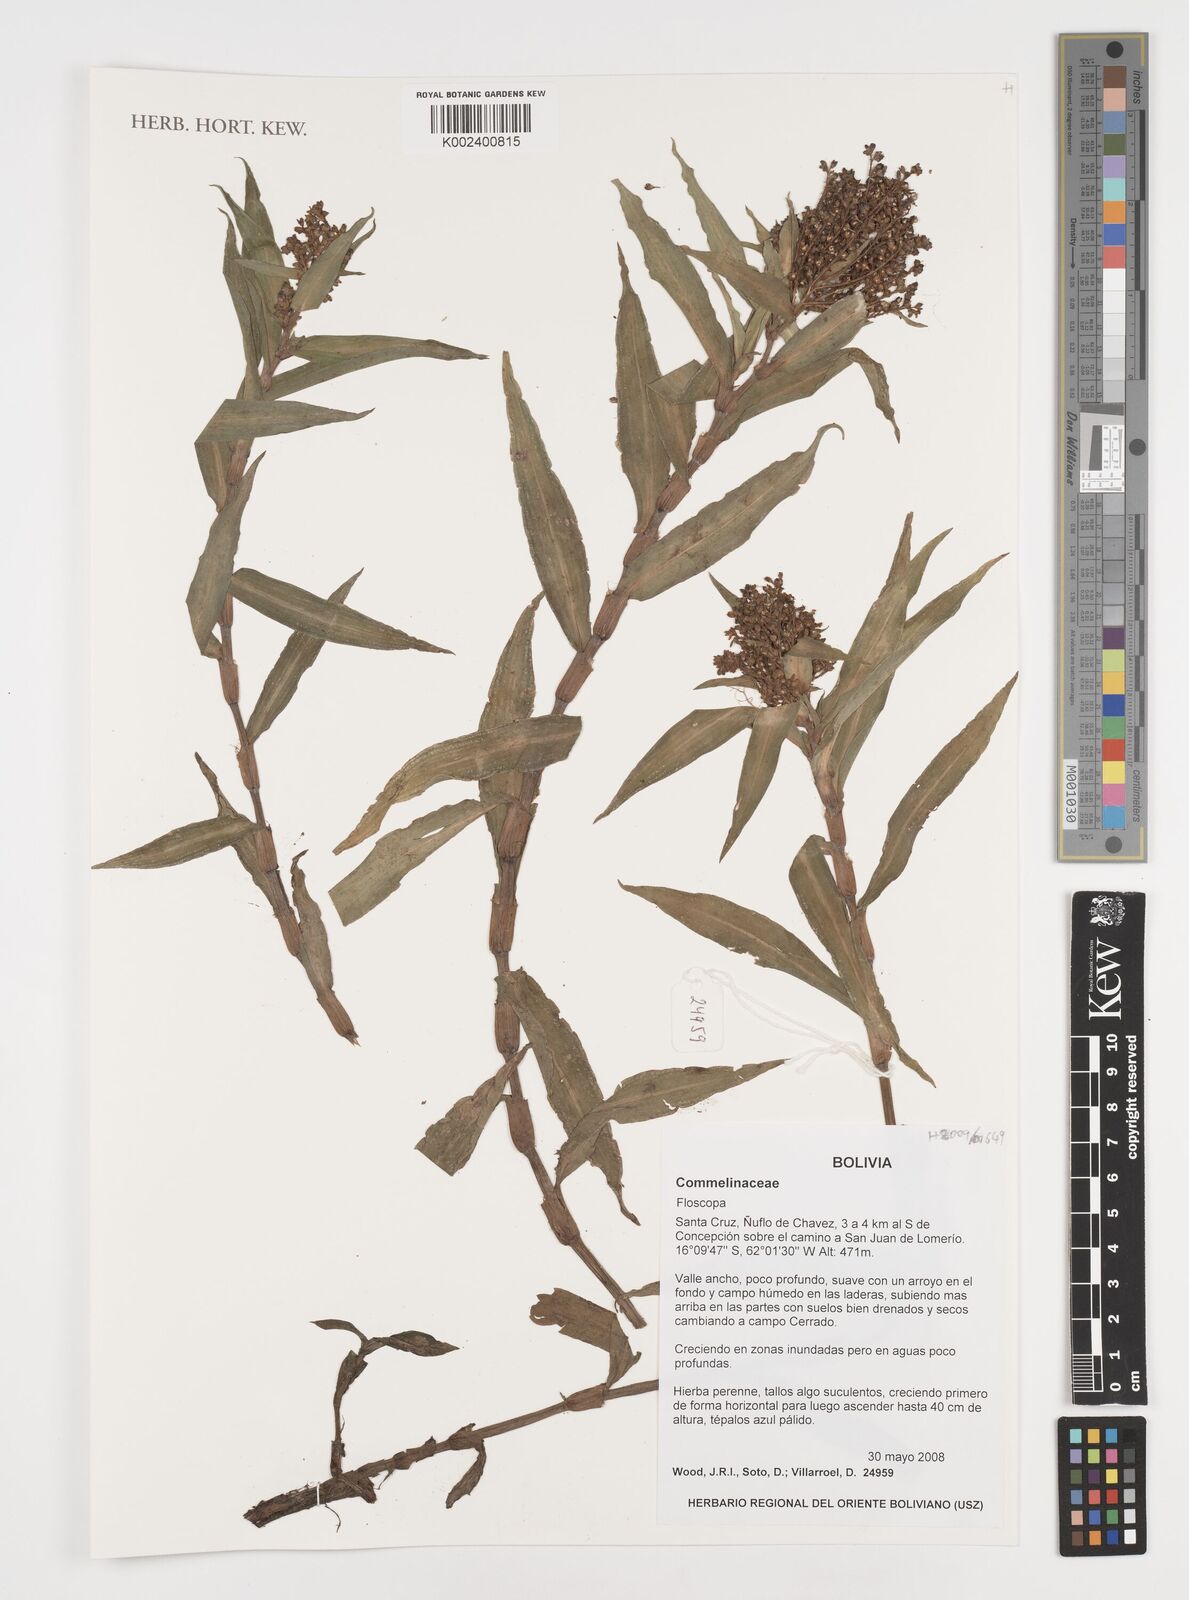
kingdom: Plantae
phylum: Tracheophyta
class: Liliopsida
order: Commelinales
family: Commelinaceae
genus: Floscopa
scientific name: Floscopa
